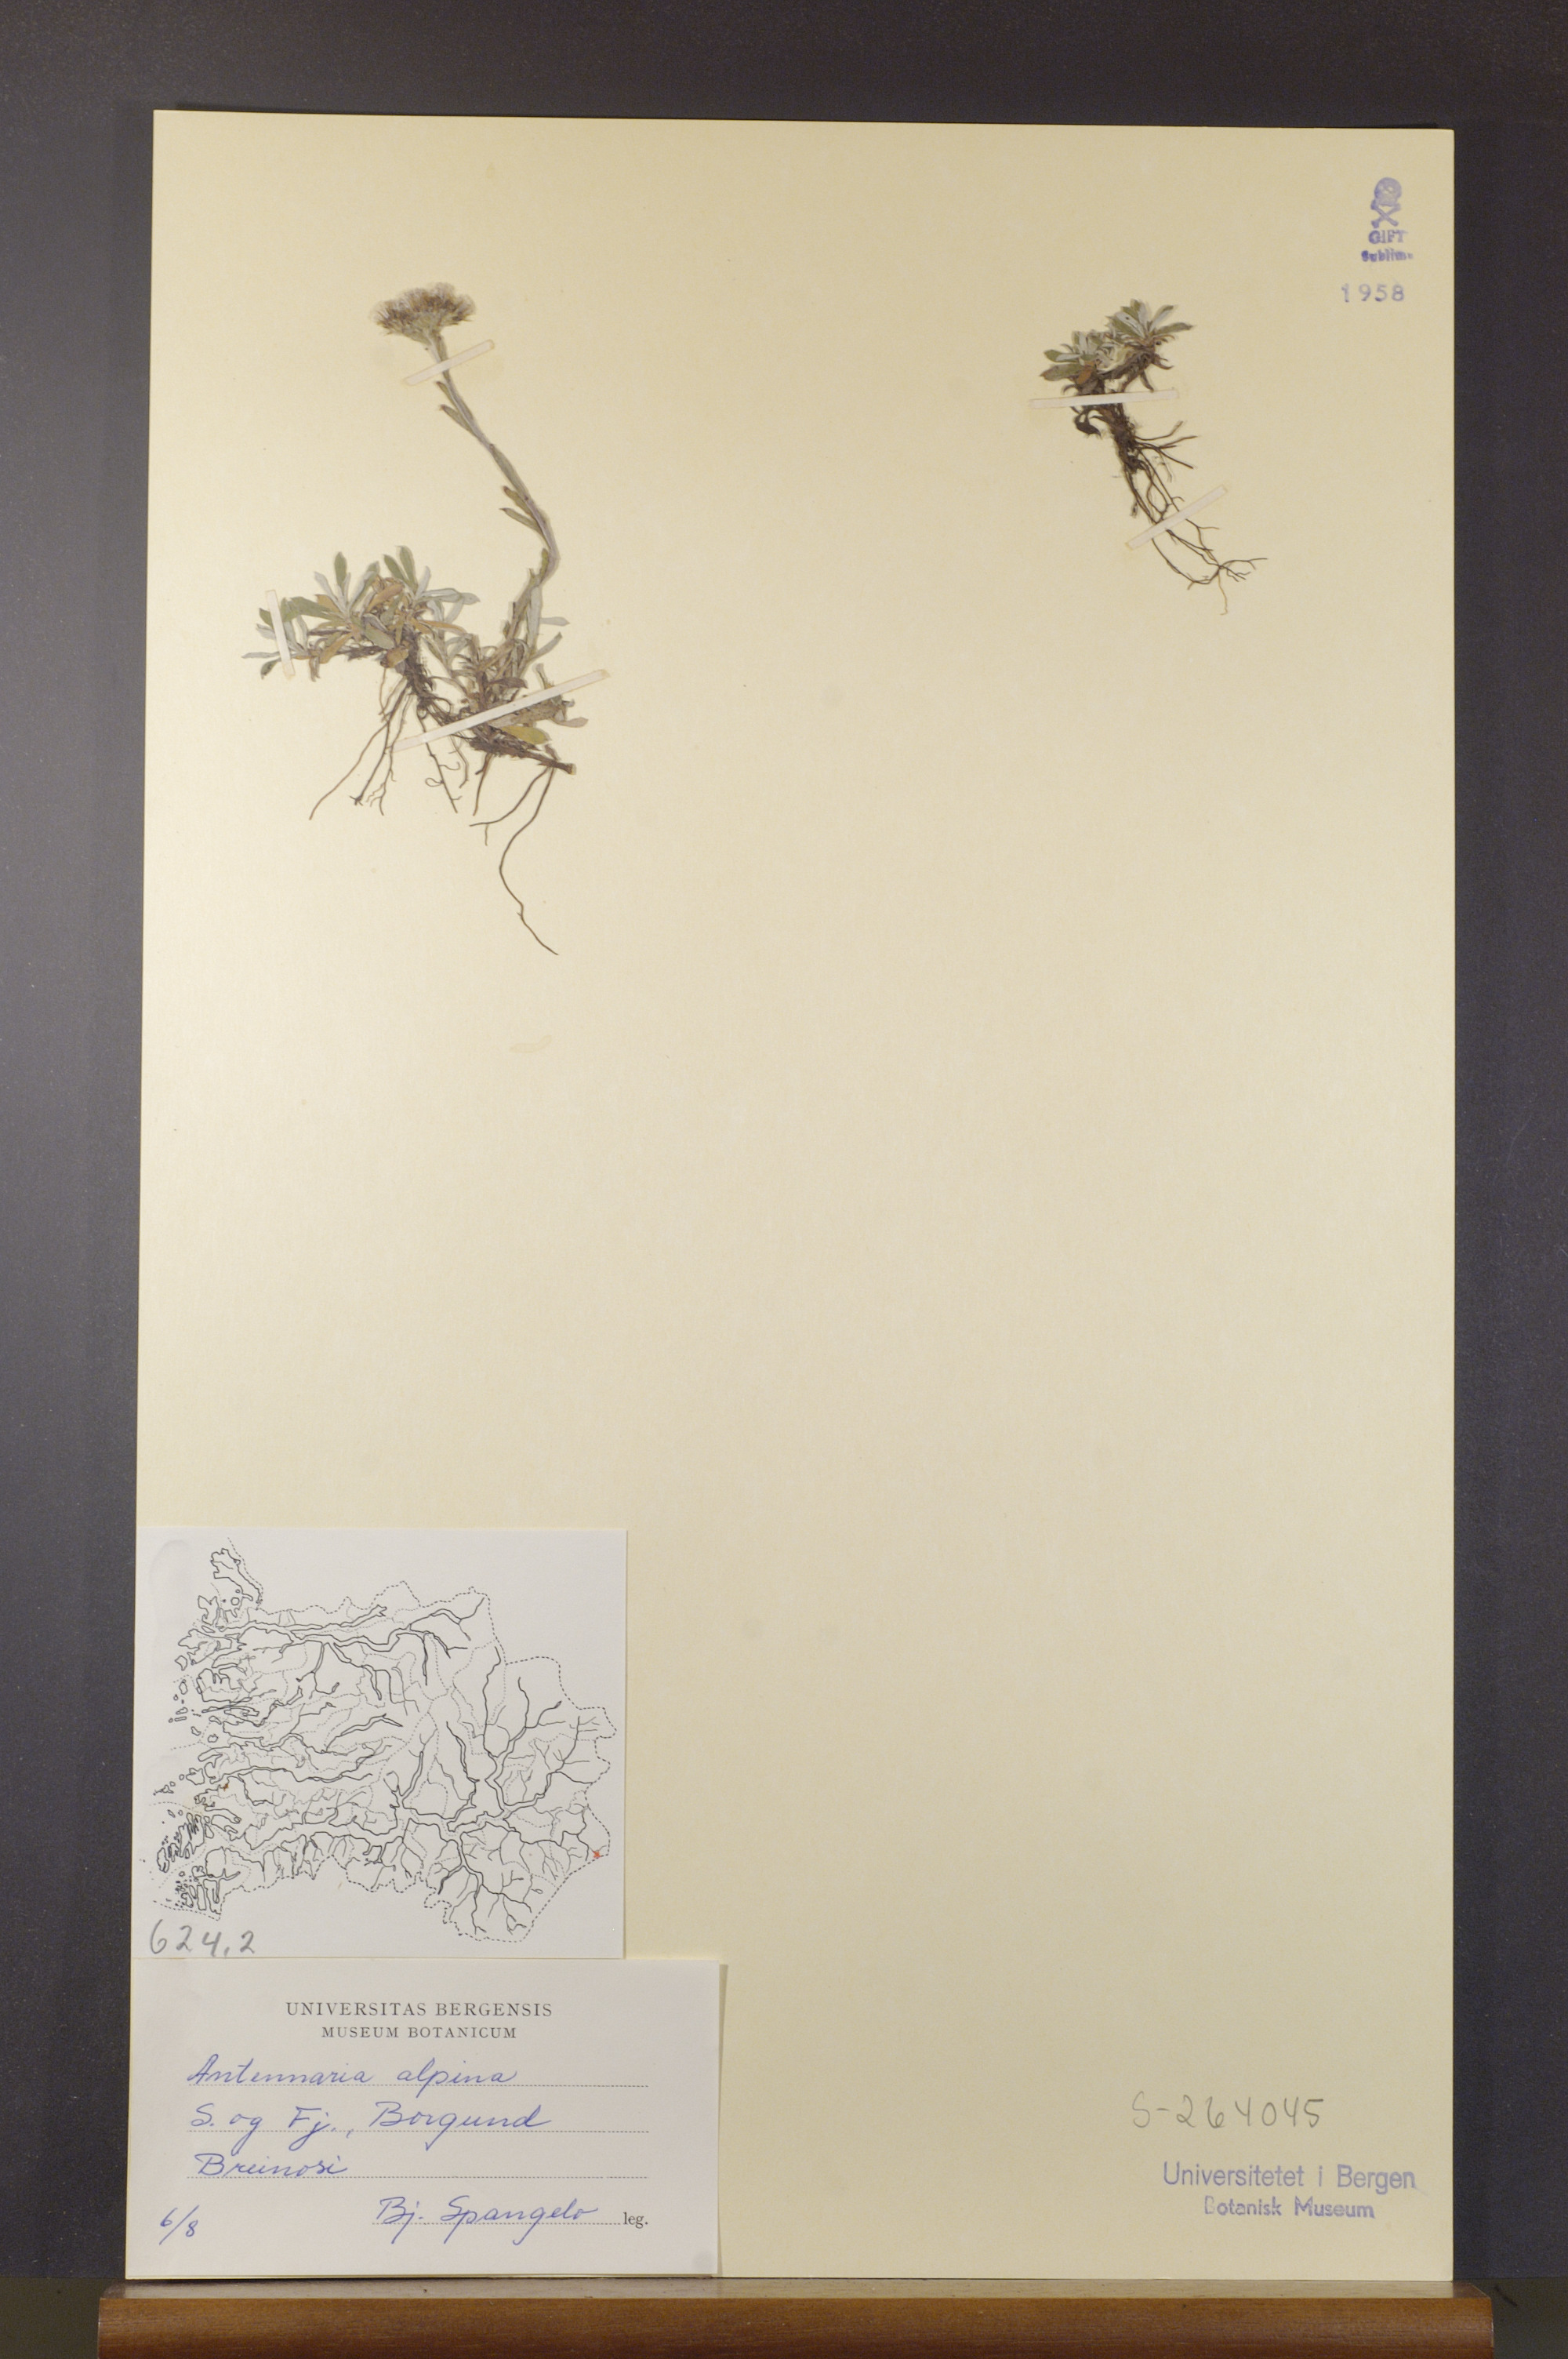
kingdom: Plantae
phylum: Tracheophyta
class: Magnoliopsida
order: Asterales
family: Asteraceae
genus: Antennaria
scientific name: Antennaria alpina
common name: Alpine pussytoes
